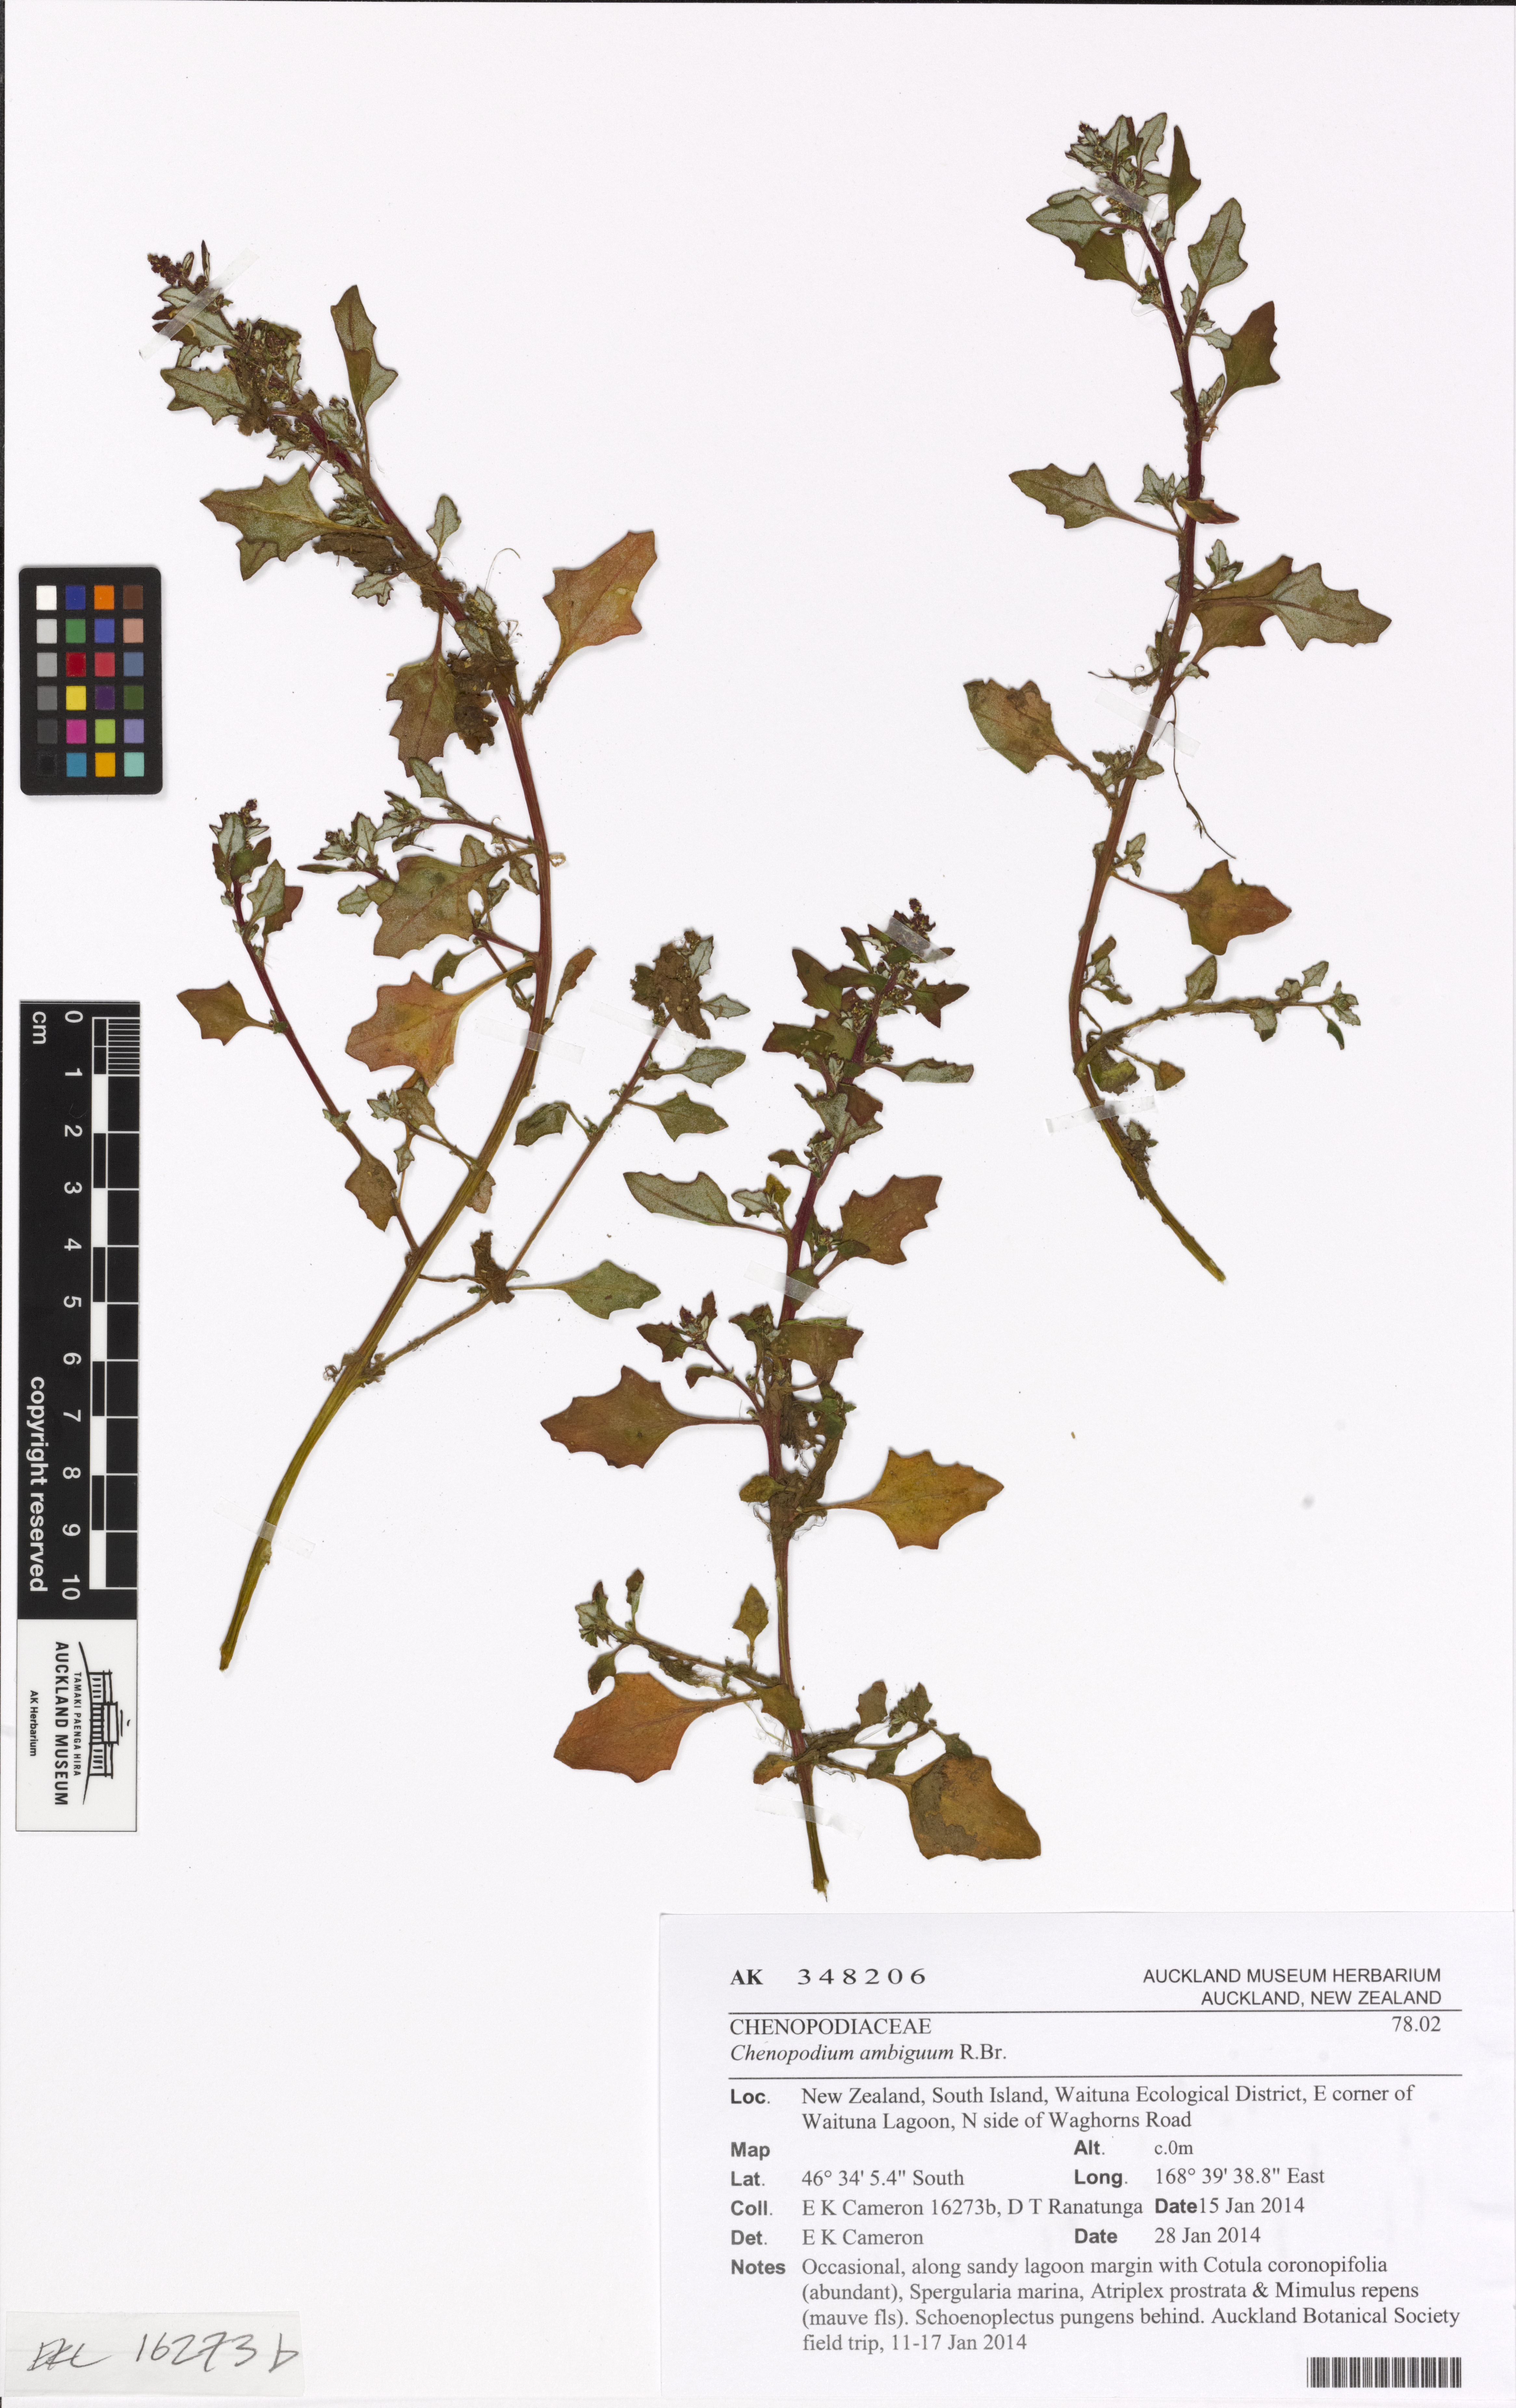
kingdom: Plantae
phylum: Tracheophyta
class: Magnoliopsida
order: Caryophyllales
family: Amaranthaceae
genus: Oxybasis
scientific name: Oxybasis ambigua
